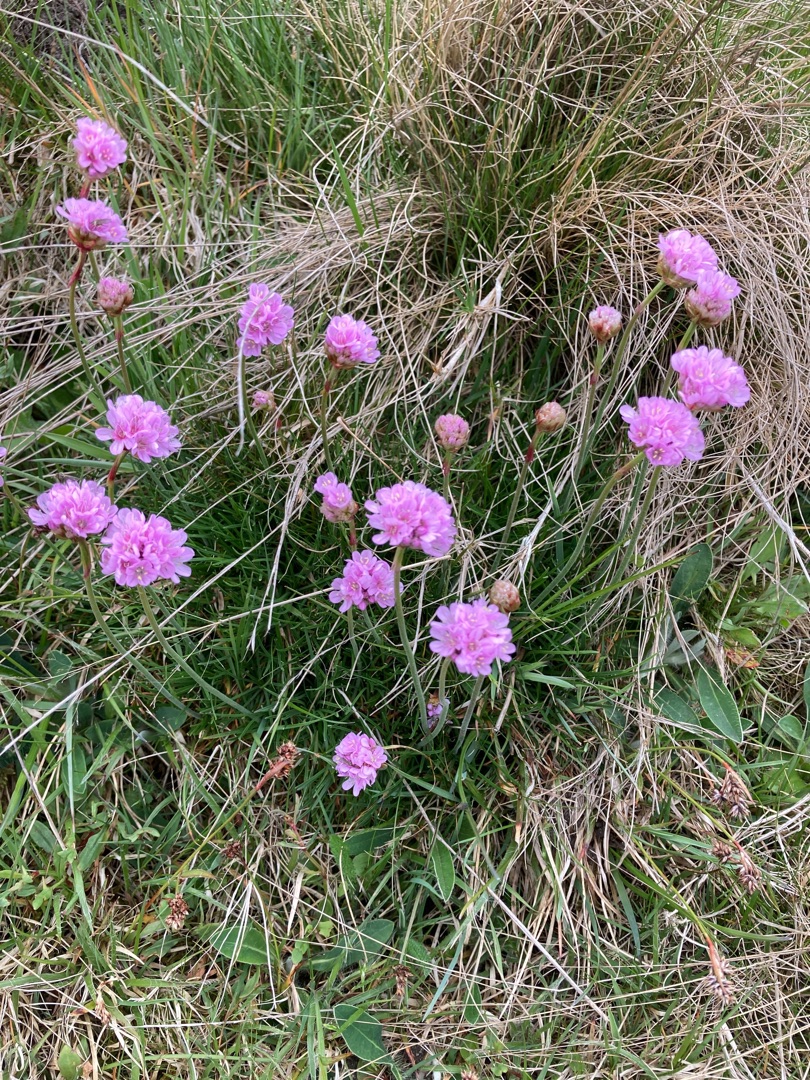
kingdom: Plantae
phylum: Tracheophyta
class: Magnoliopsida
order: Caryophyllales
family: Plumbaginaceae
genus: Armeria
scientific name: Armeria maritima
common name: Engelskgræs
